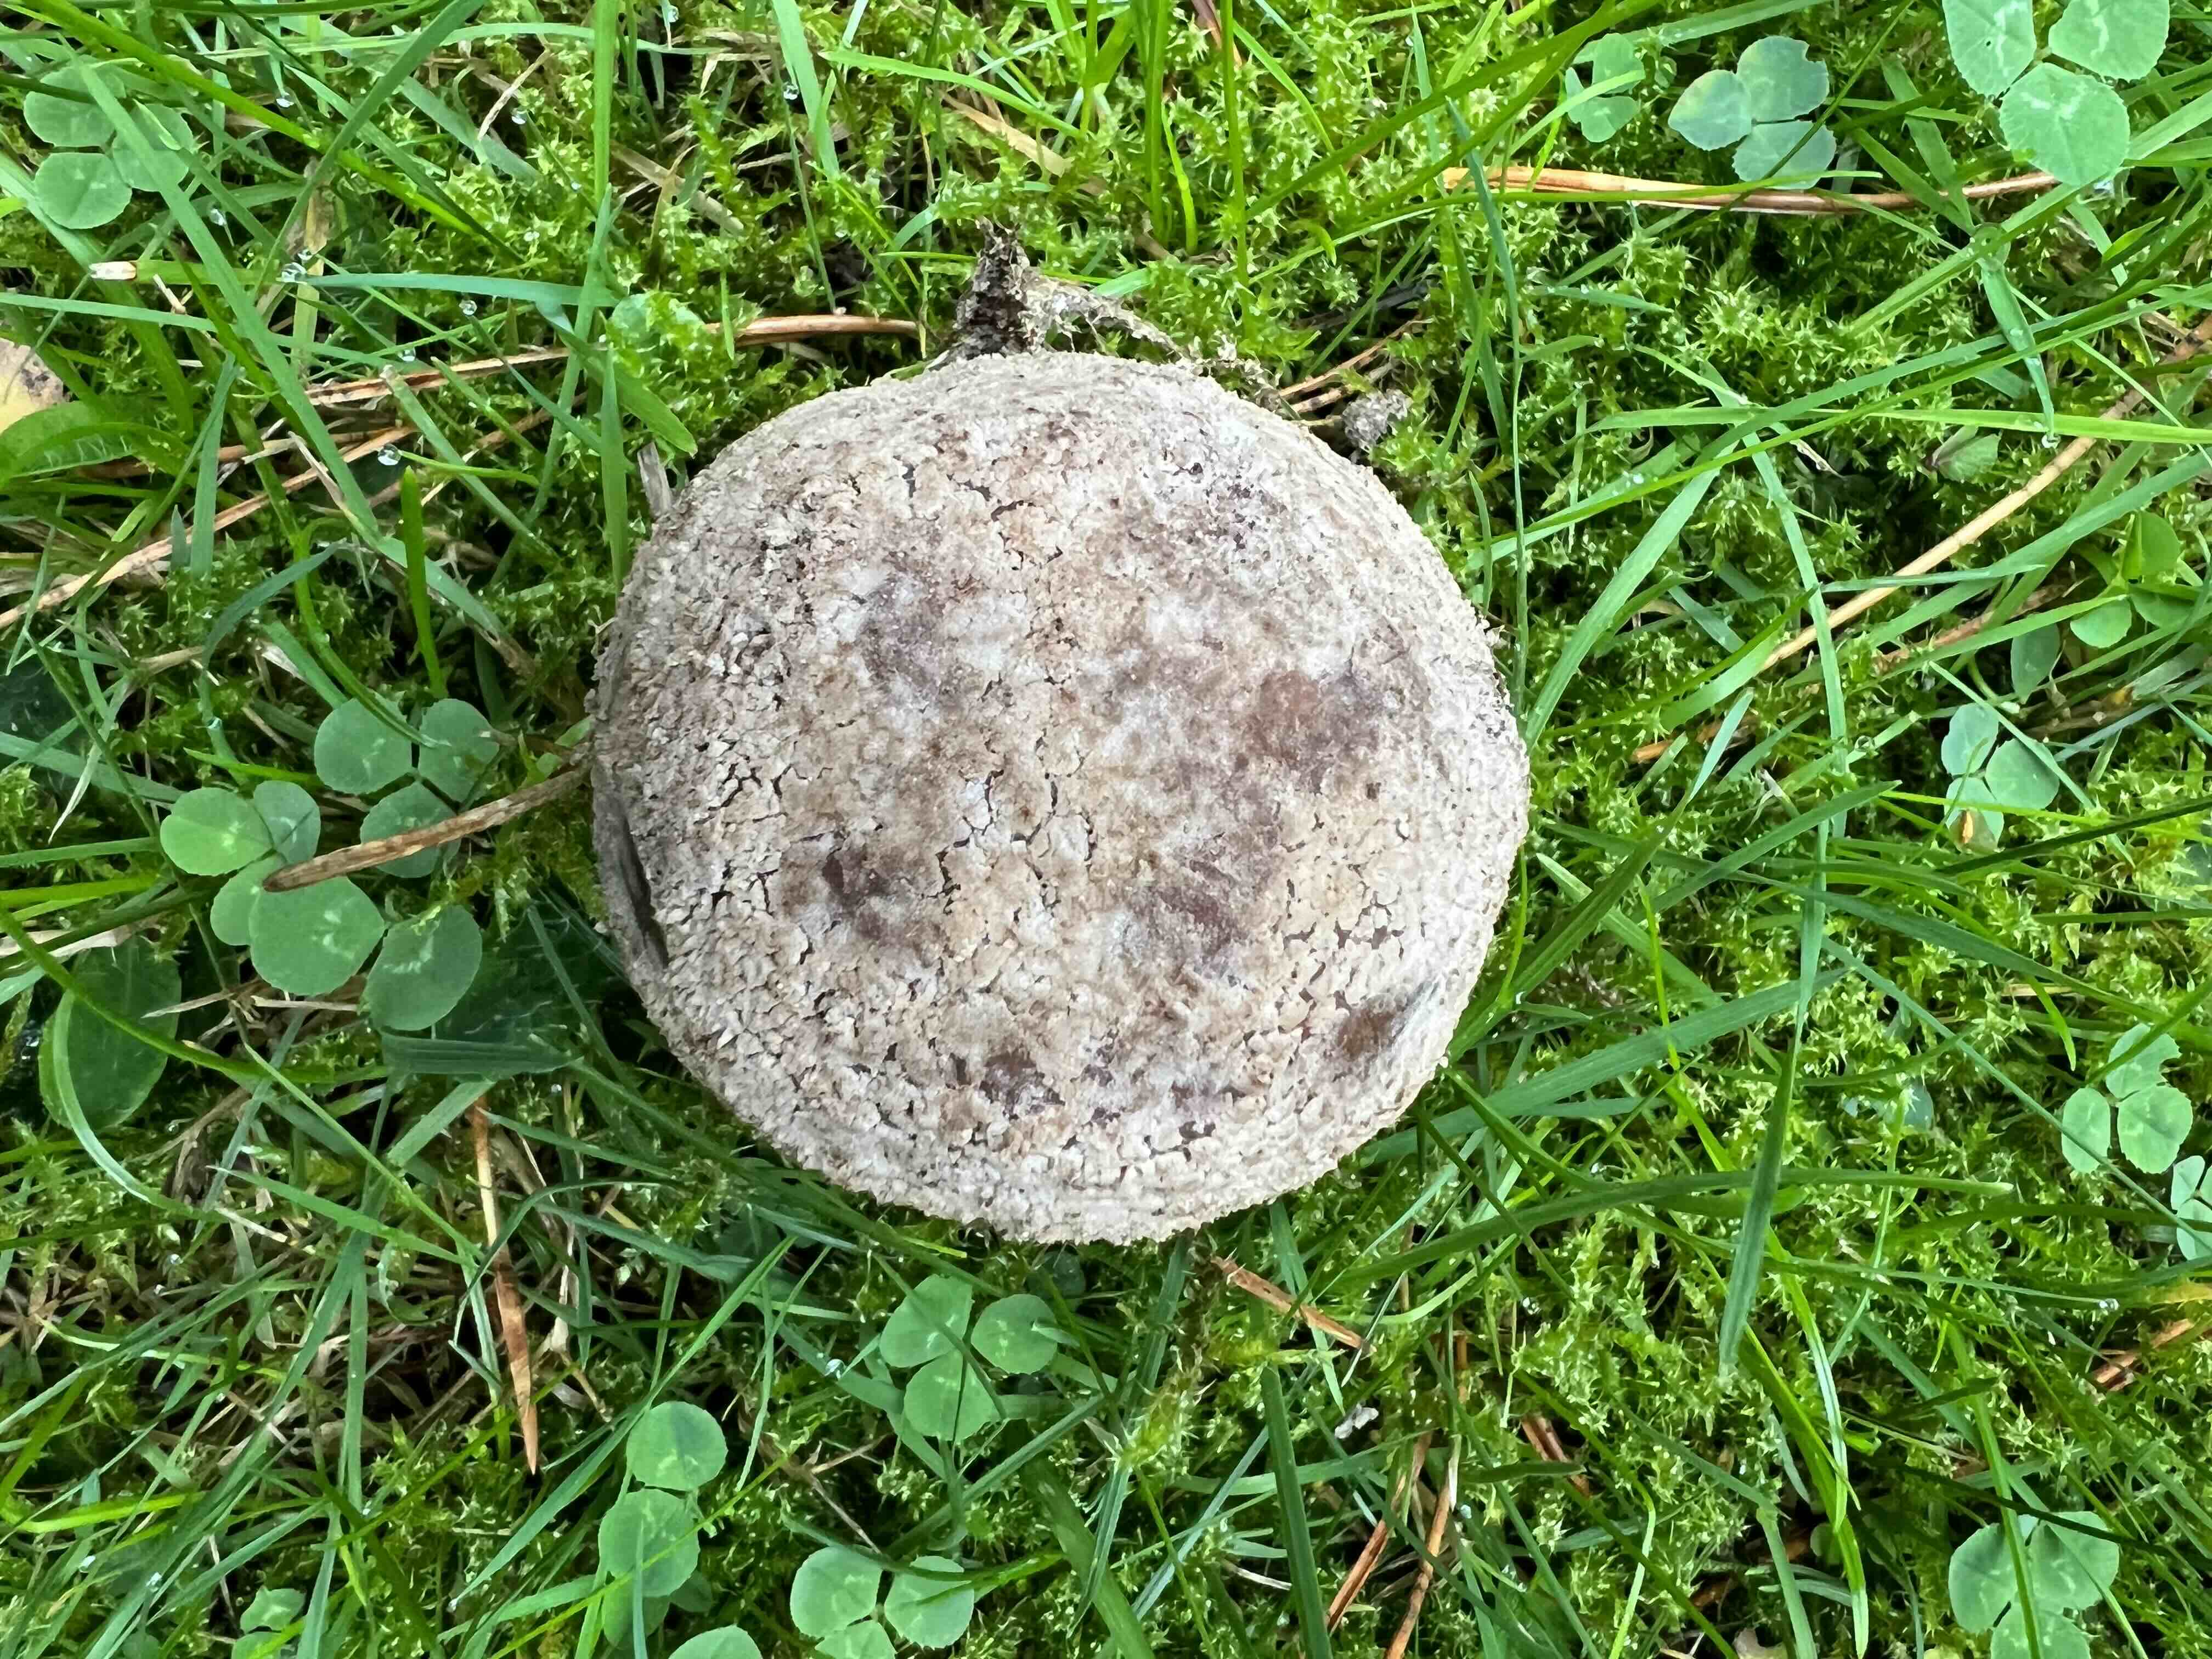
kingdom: Fungi
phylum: Basidiomycota
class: Agaricomycetes
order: Agaricales
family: Amanitaceae
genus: Amanita
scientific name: Amanita
